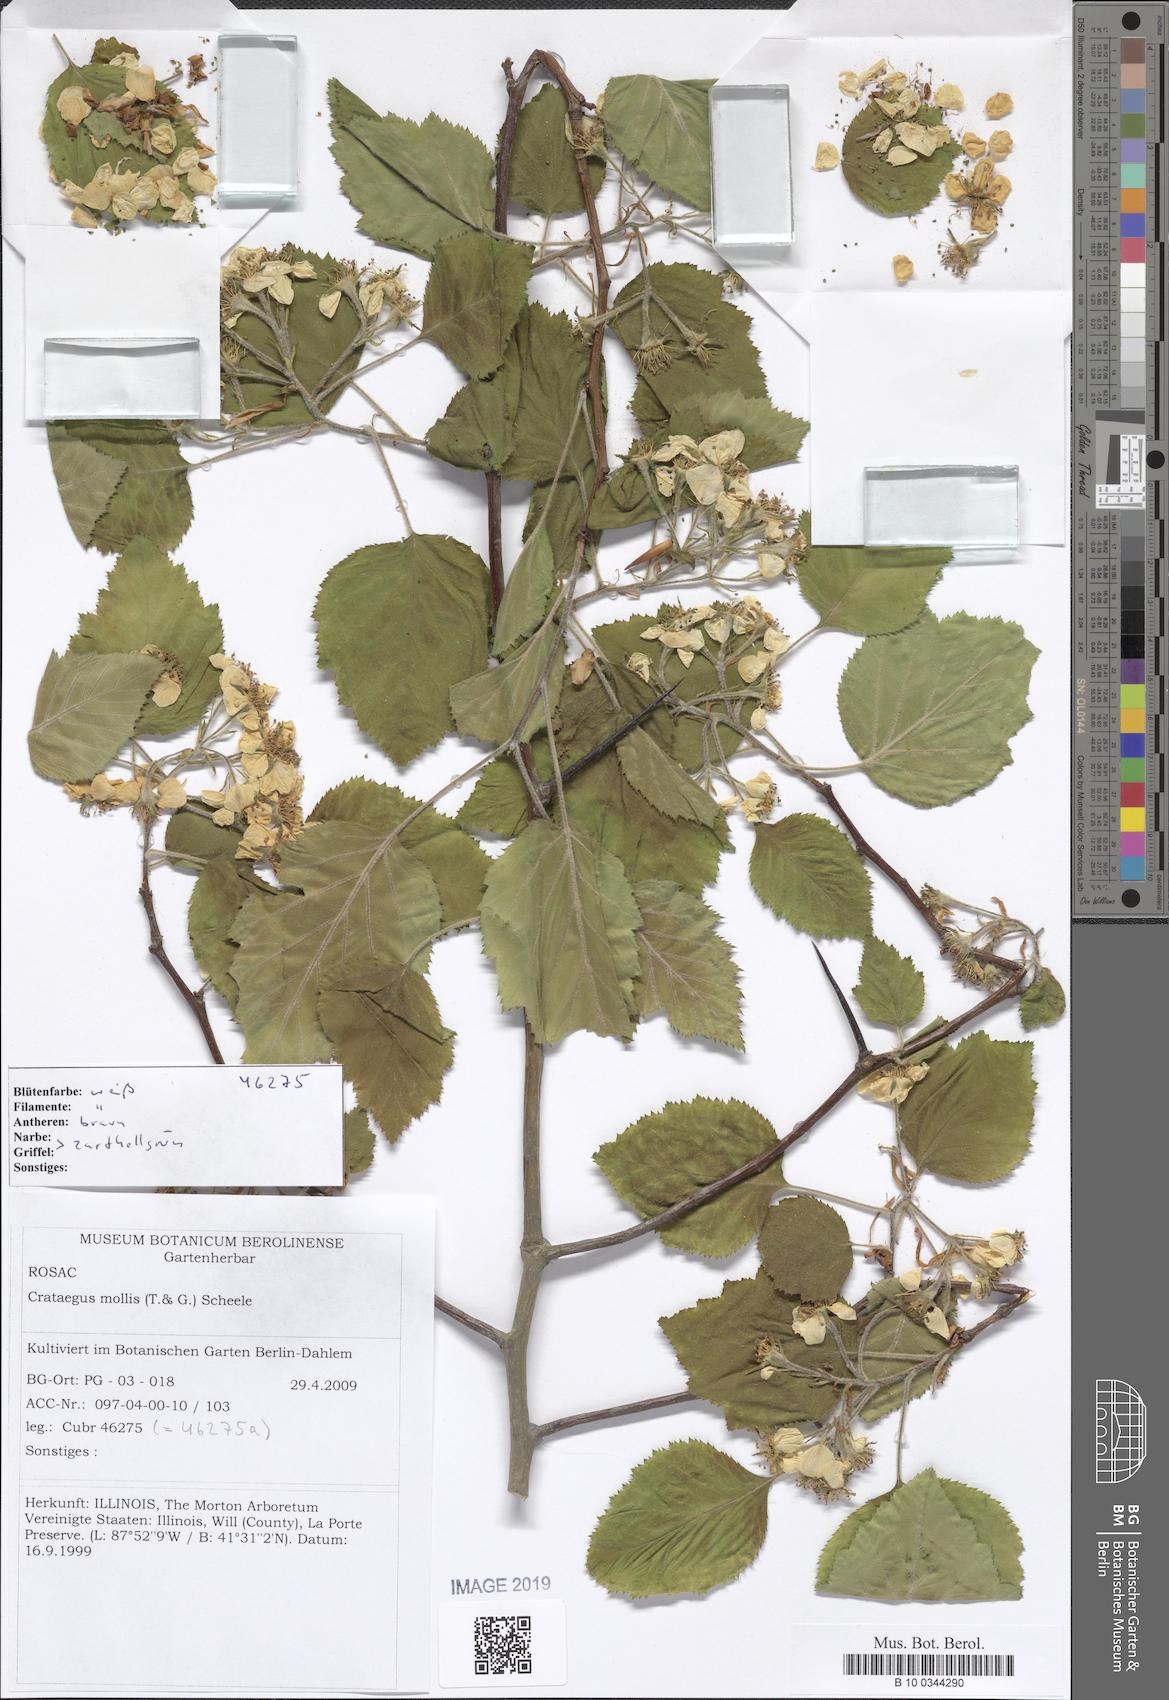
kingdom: Plantae
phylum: Tracheophyta
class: Magnoliopsida
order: Rosales
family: Rosaceae
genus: Crataegus
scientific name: Crataegus mollis
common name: Downy hawthorn
